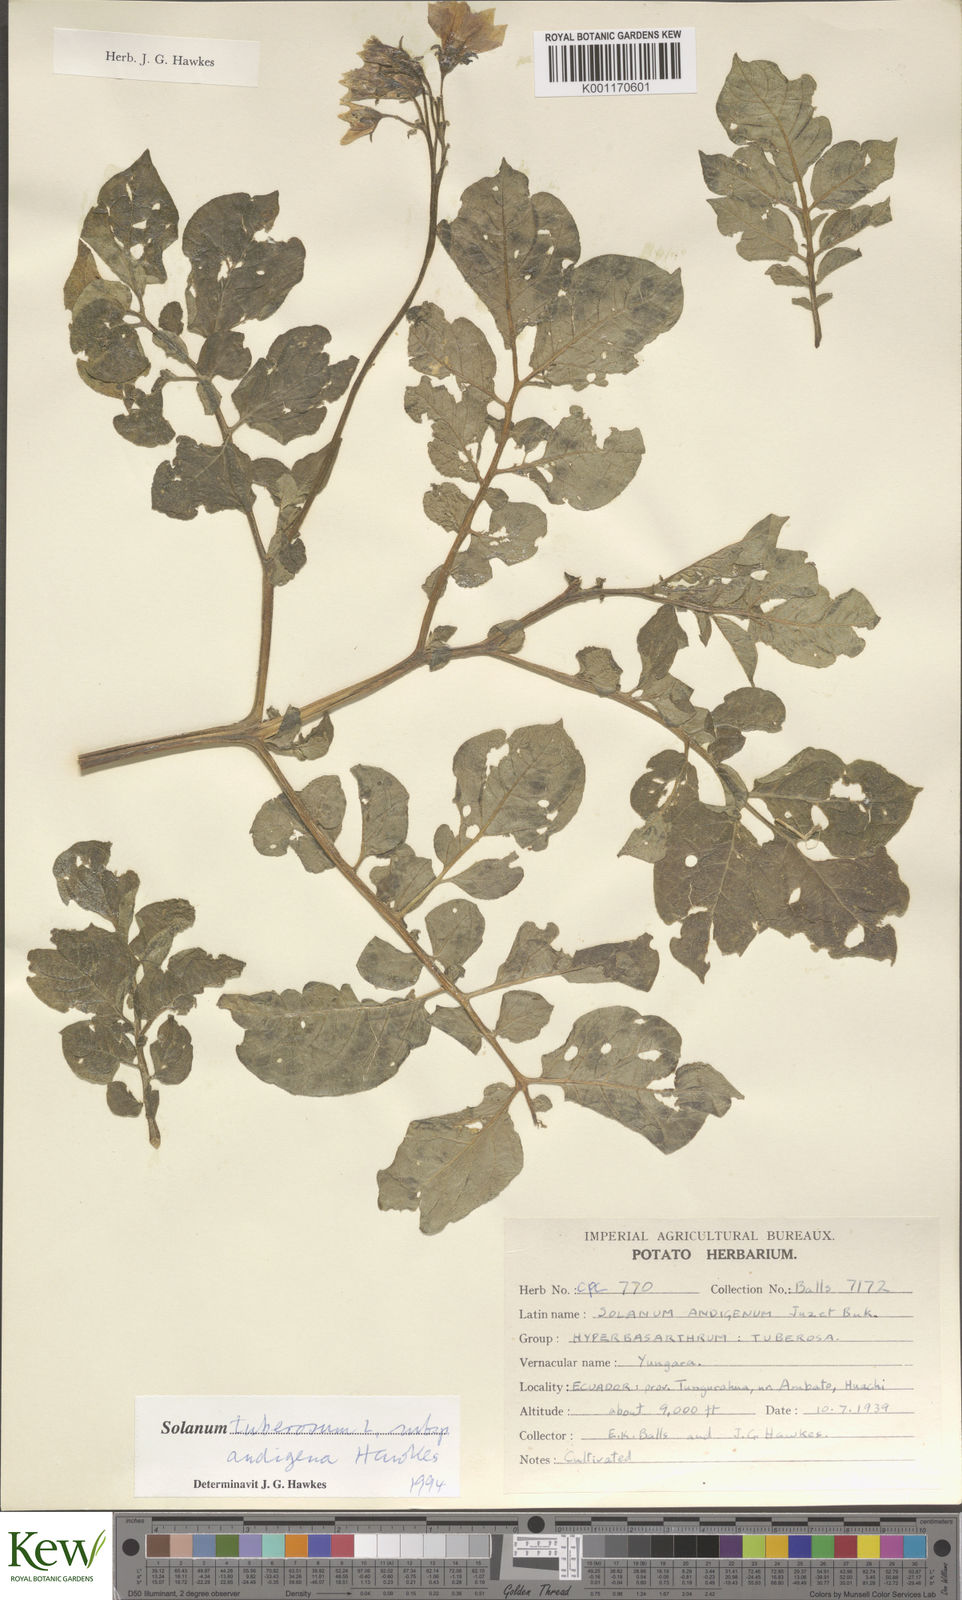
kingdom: Plantae
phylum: Tracheophyta
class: Magnoliopsida
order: Solanales
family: Solanaceae
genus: Solanum
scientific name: Solanum tuberosum
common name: Potato
